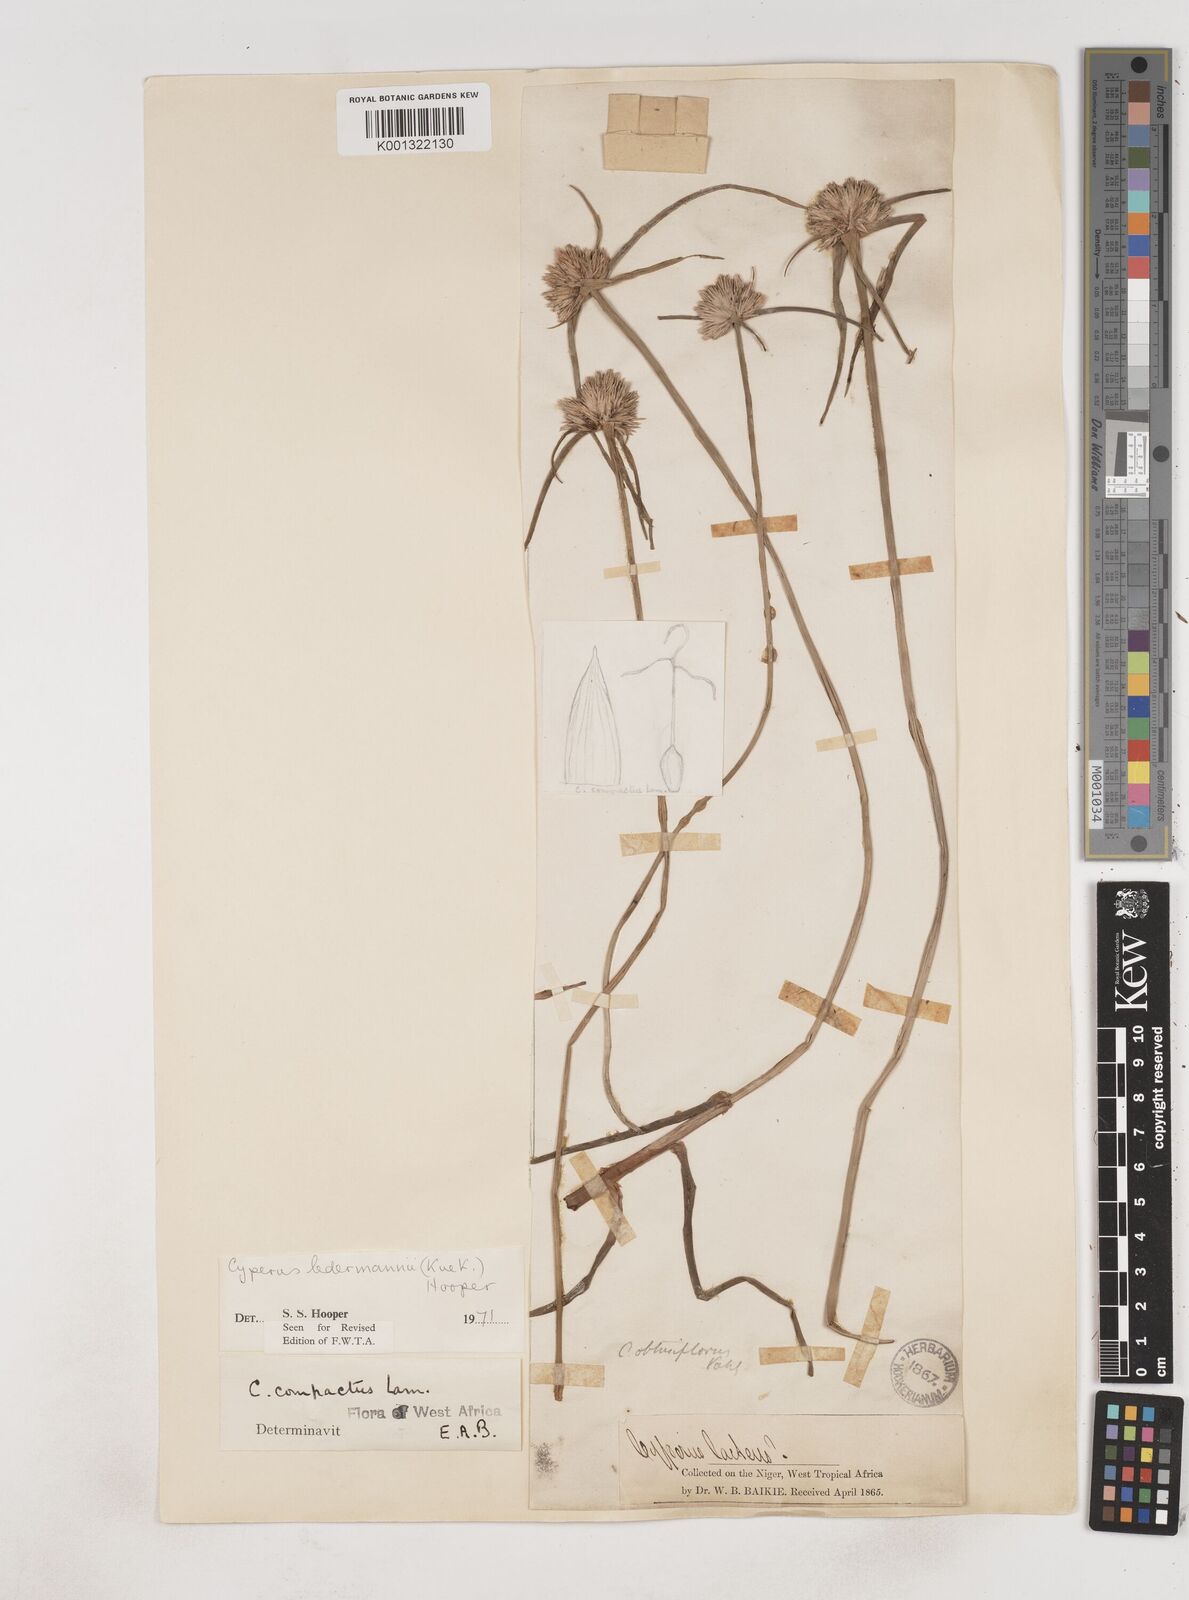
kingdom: Plantae
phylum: Tracheophyta
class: Liliopsida
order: Poales
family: Cyperaceae
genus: Cyperus
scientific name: Cyperus niveus
